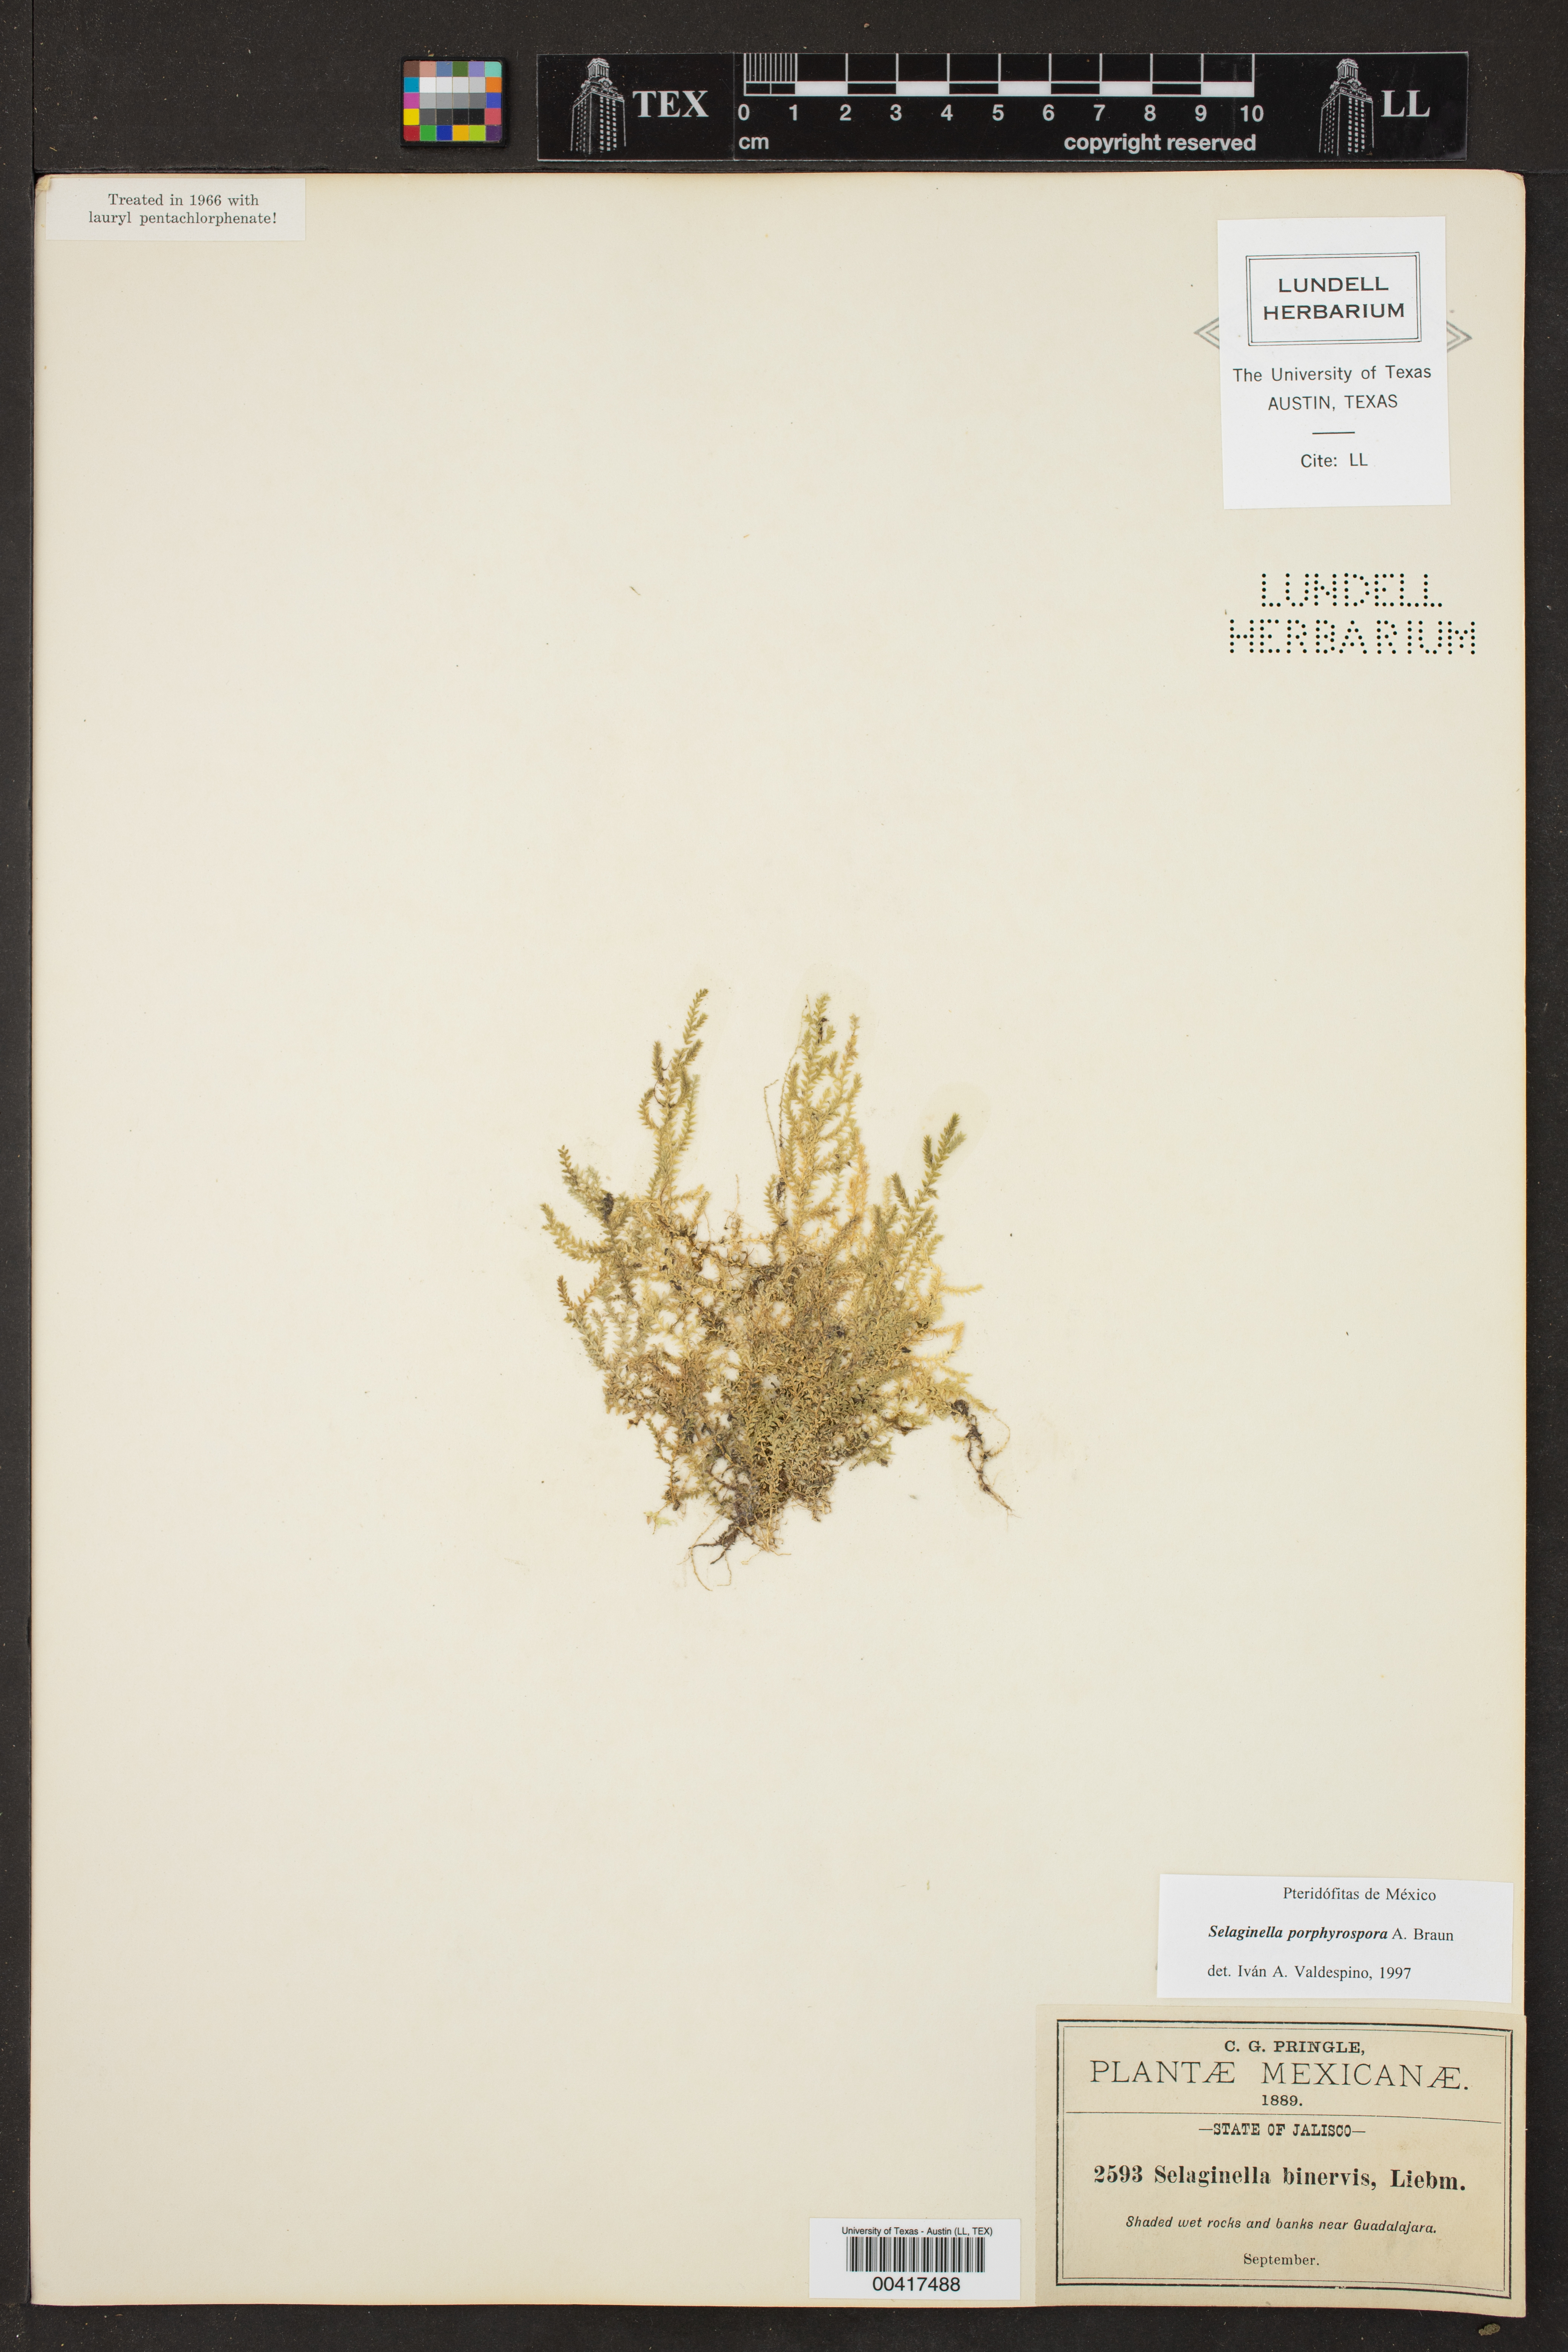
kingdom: Plantae
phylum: Tracheophyta
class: Lycopodiopsida
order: Selaginellales
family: Selaginellaceae
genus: Selaginella
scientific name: Selaginella porphyrospora
